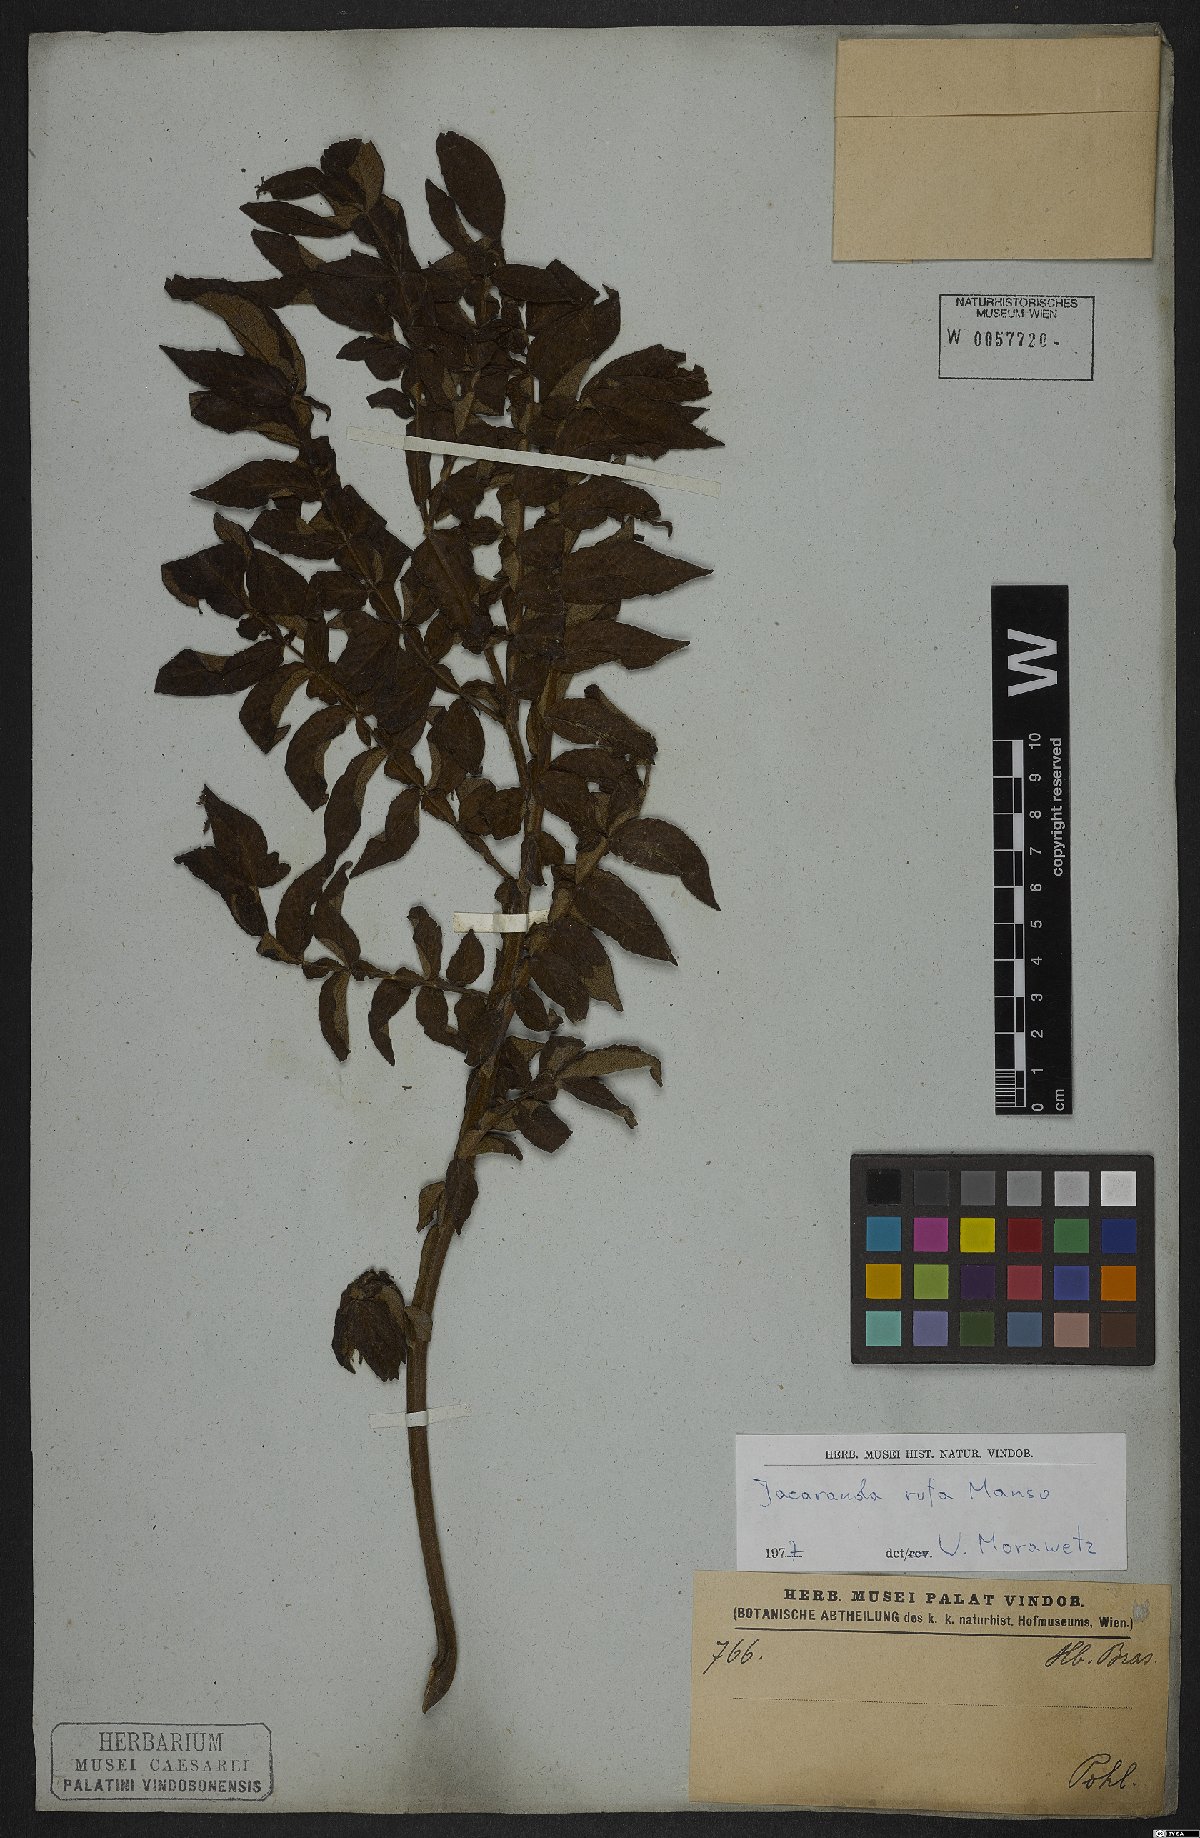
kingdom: Plantae
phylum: Tracheophyta
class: Magnoliopsida
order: Lamiales
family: Bignoniaceae
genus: Jacaranda
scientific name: Jacaranda rufa
